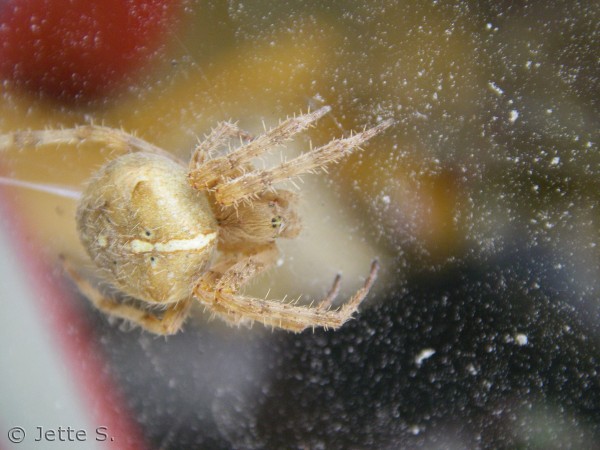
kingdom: Animalia
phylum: Arthropoda
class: Arachnida
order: Araneae
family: Araneidae
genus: Araneus
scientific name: Araneus diadematus
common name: Korsedderkop
